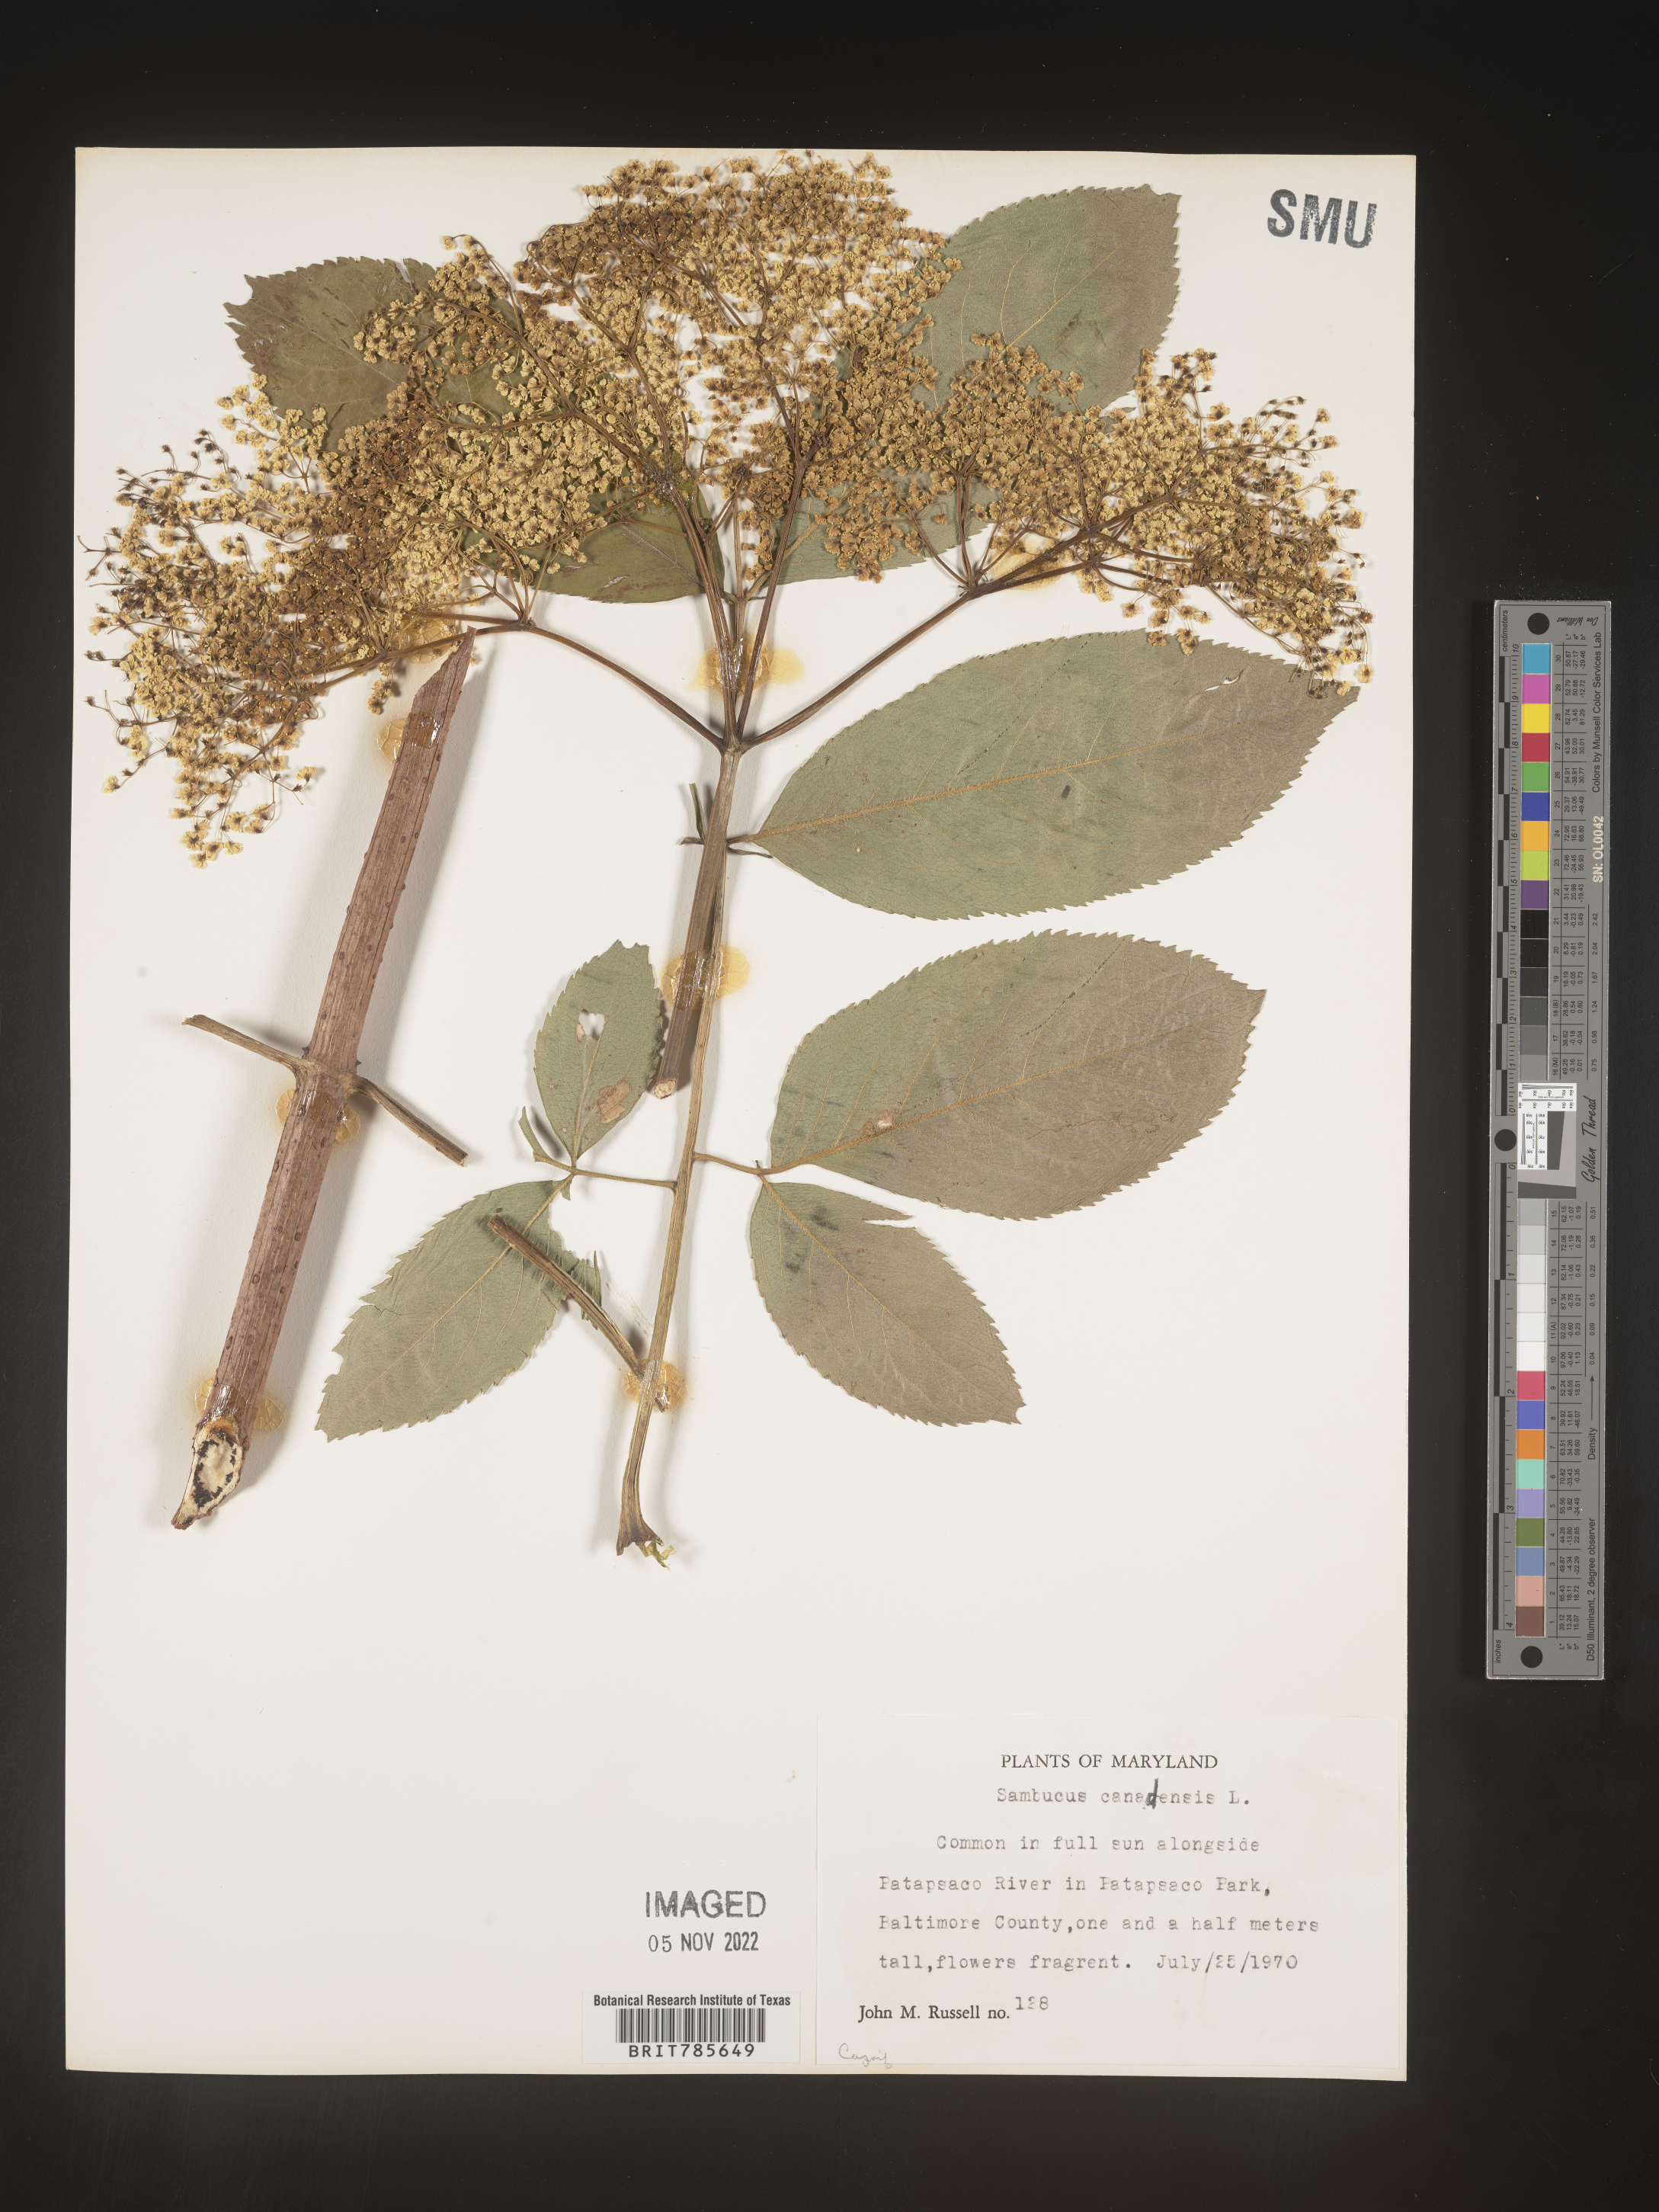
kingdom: Plantae
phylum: Tracheophyta
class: Magnoliopsida
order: Dipsacales
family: Viburnaceae
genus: Sambucus
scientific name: Sambucus canadensis
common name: American elder
